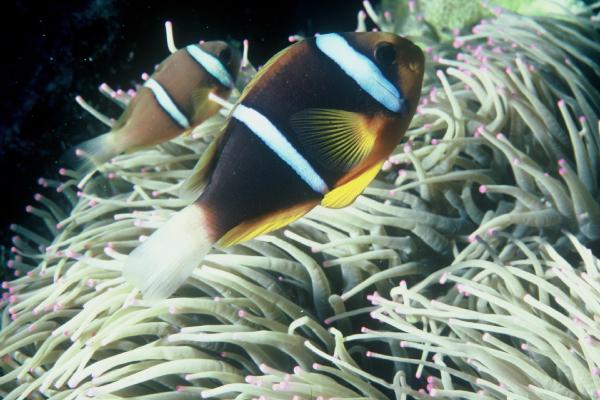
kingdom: Animalia
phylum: Chordata
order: Perciformes
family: Pomacentridae
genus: Amphiprion
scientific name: Amphiprion chrysopterus
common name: Orange-fin anemonefish
